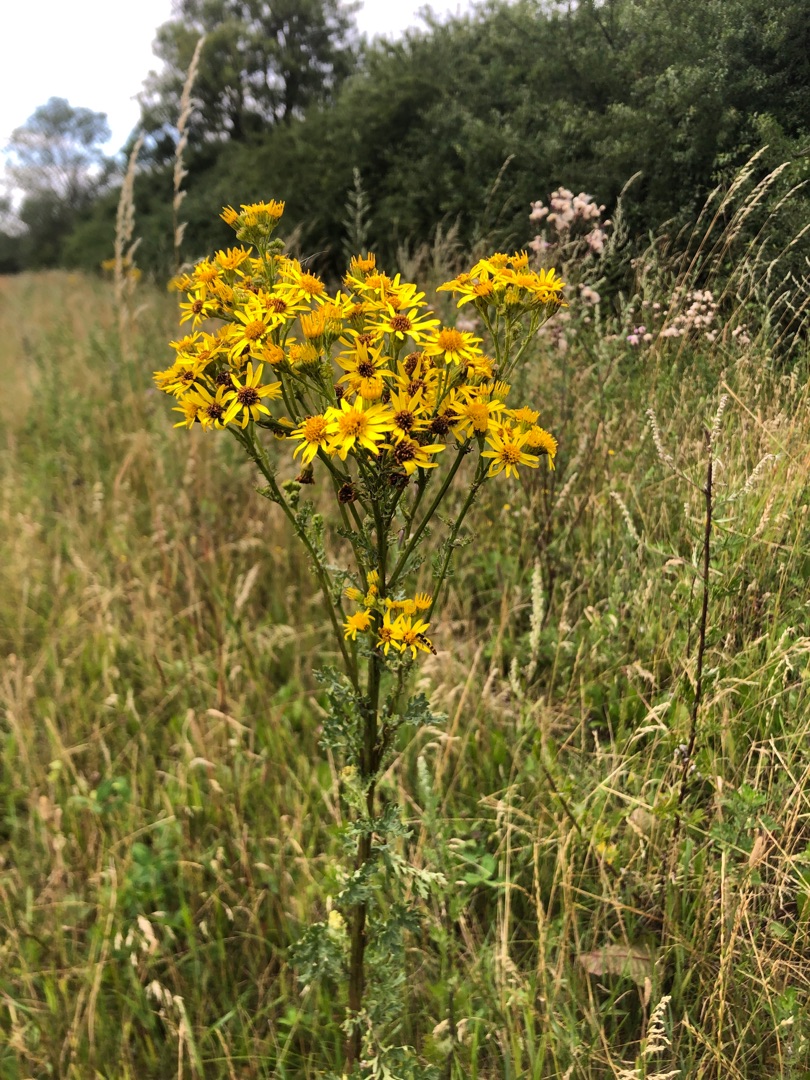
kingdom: Plantae
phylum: Tracheophyta
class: Magnoliopsida
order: Asterales
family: Asteraceae
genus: Jacobaea
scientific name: Jacobaea vulgaris
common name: Eng-brandbæger
